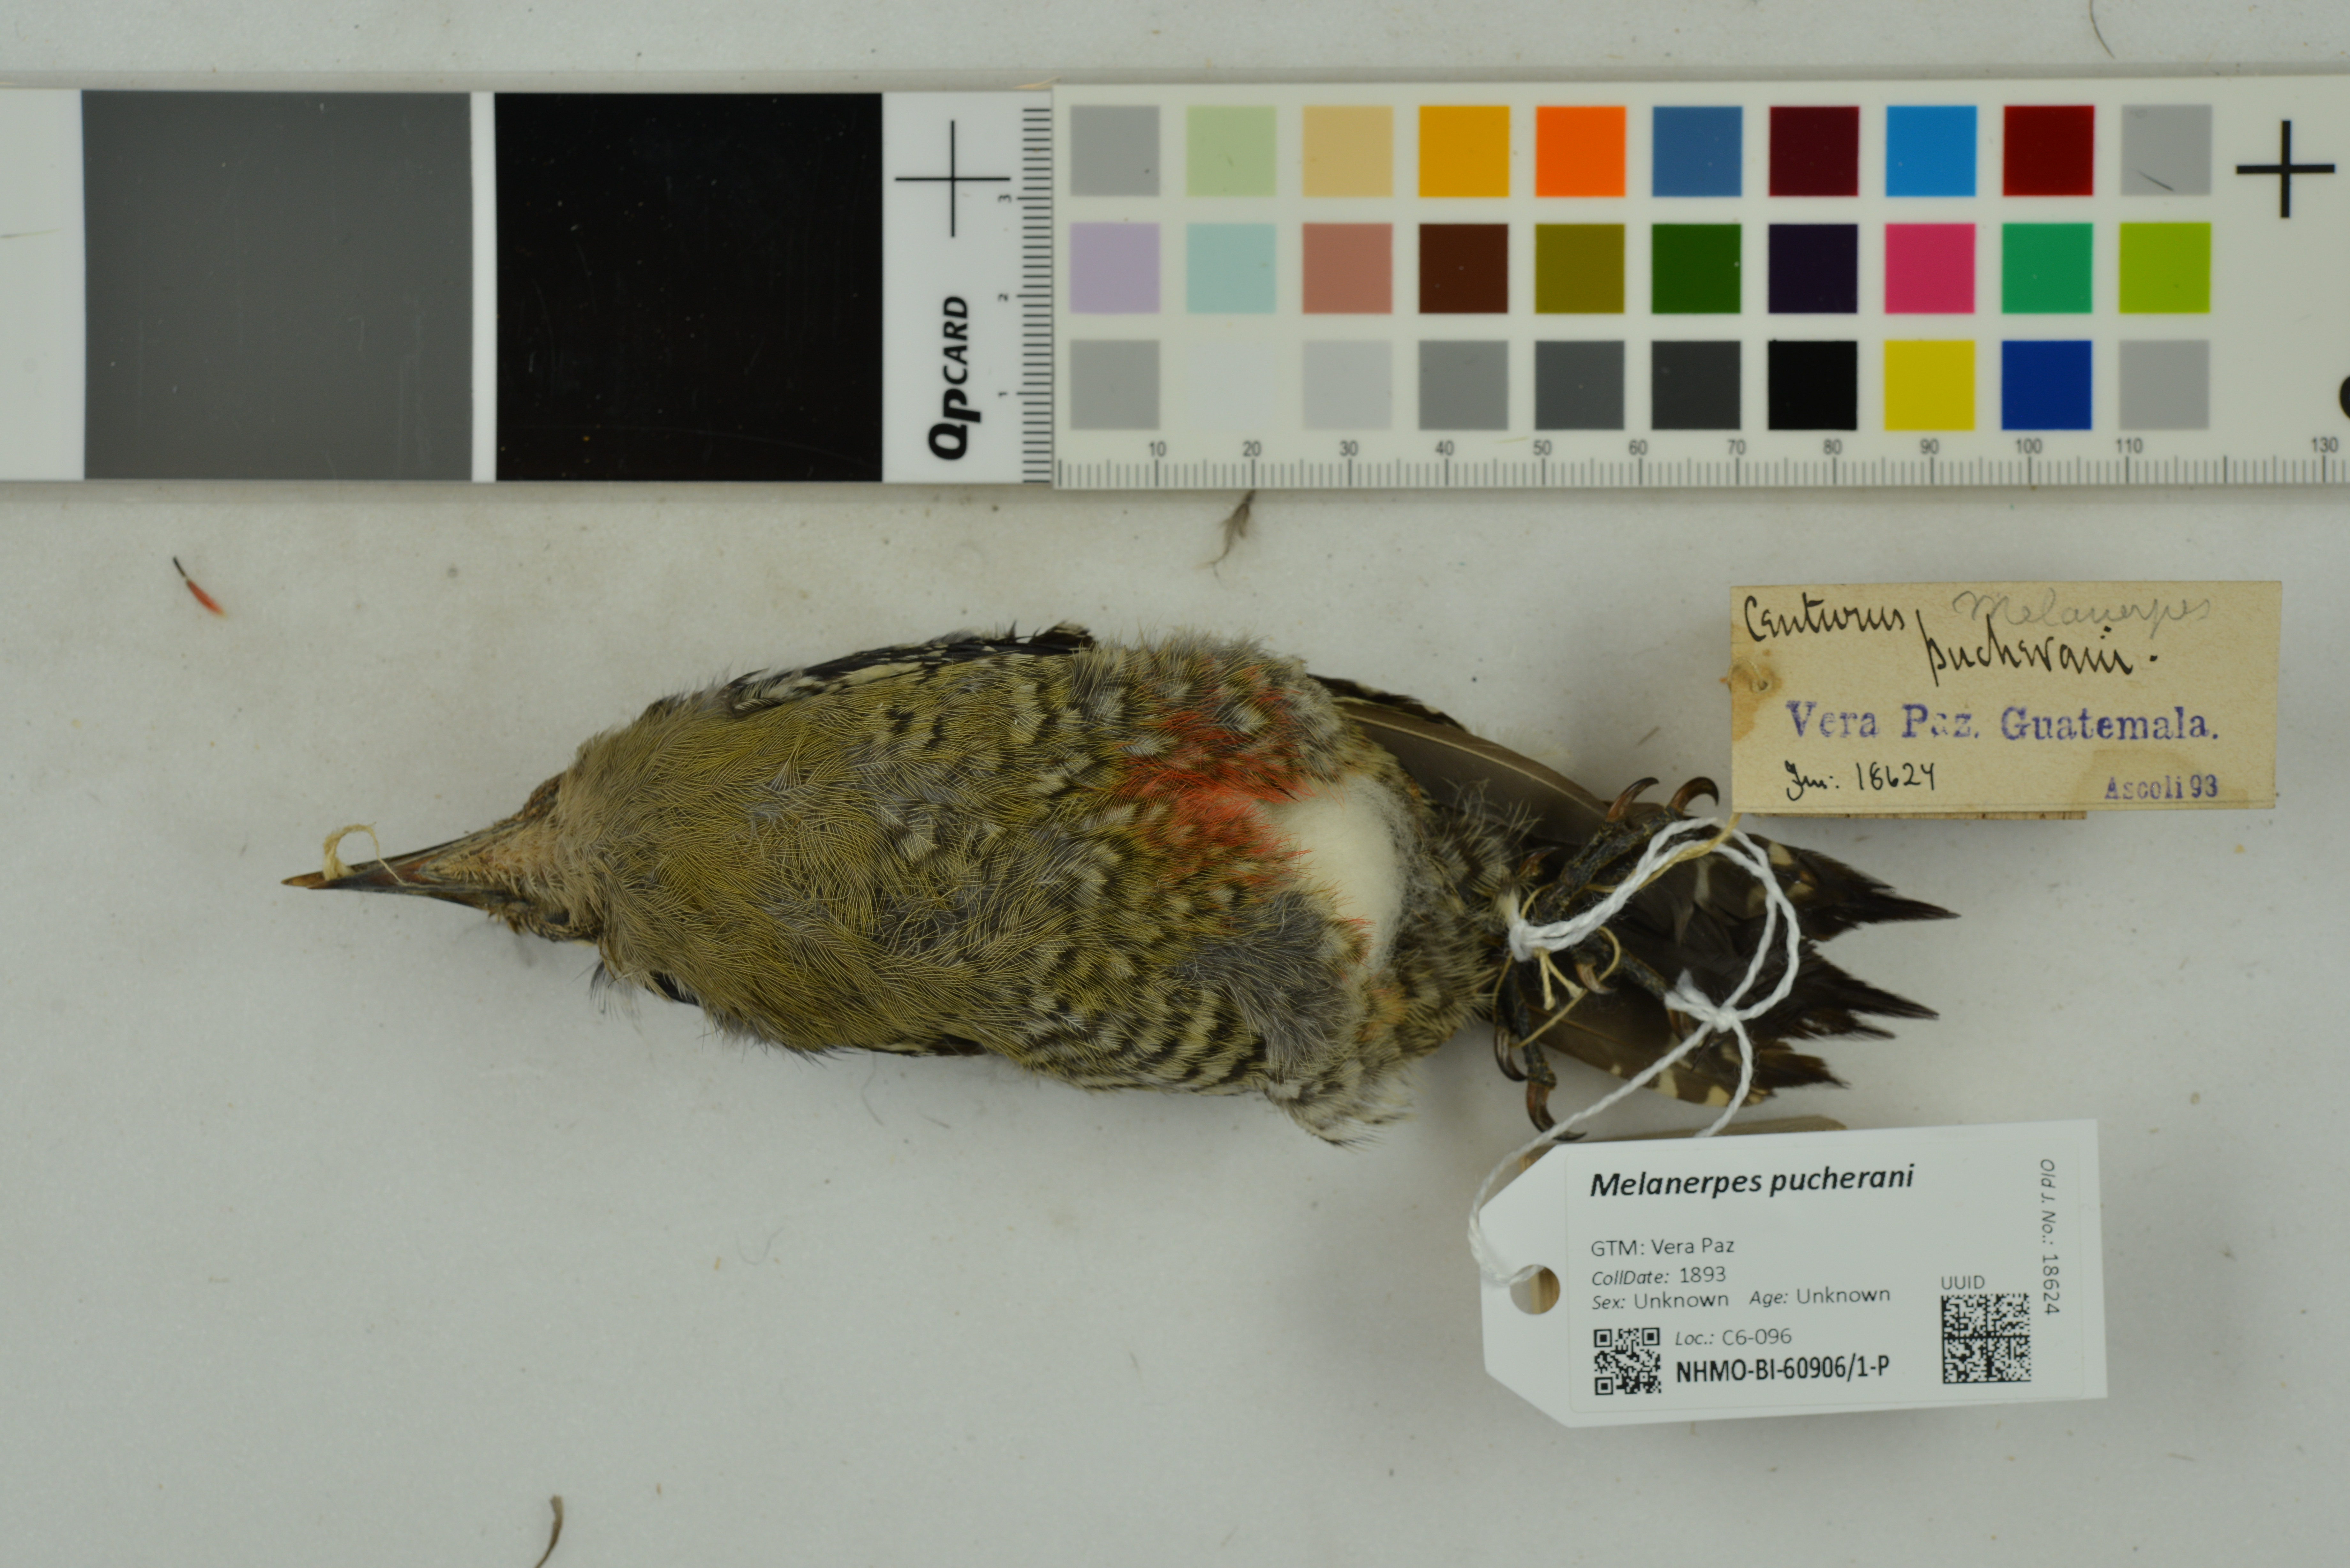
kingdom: Animalia
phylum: Chordata
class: Aves
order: Piciformes
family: Picidae
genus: Melanerpes
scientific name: Melanerpes pucherani
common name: Black-cheeked woodpecker
